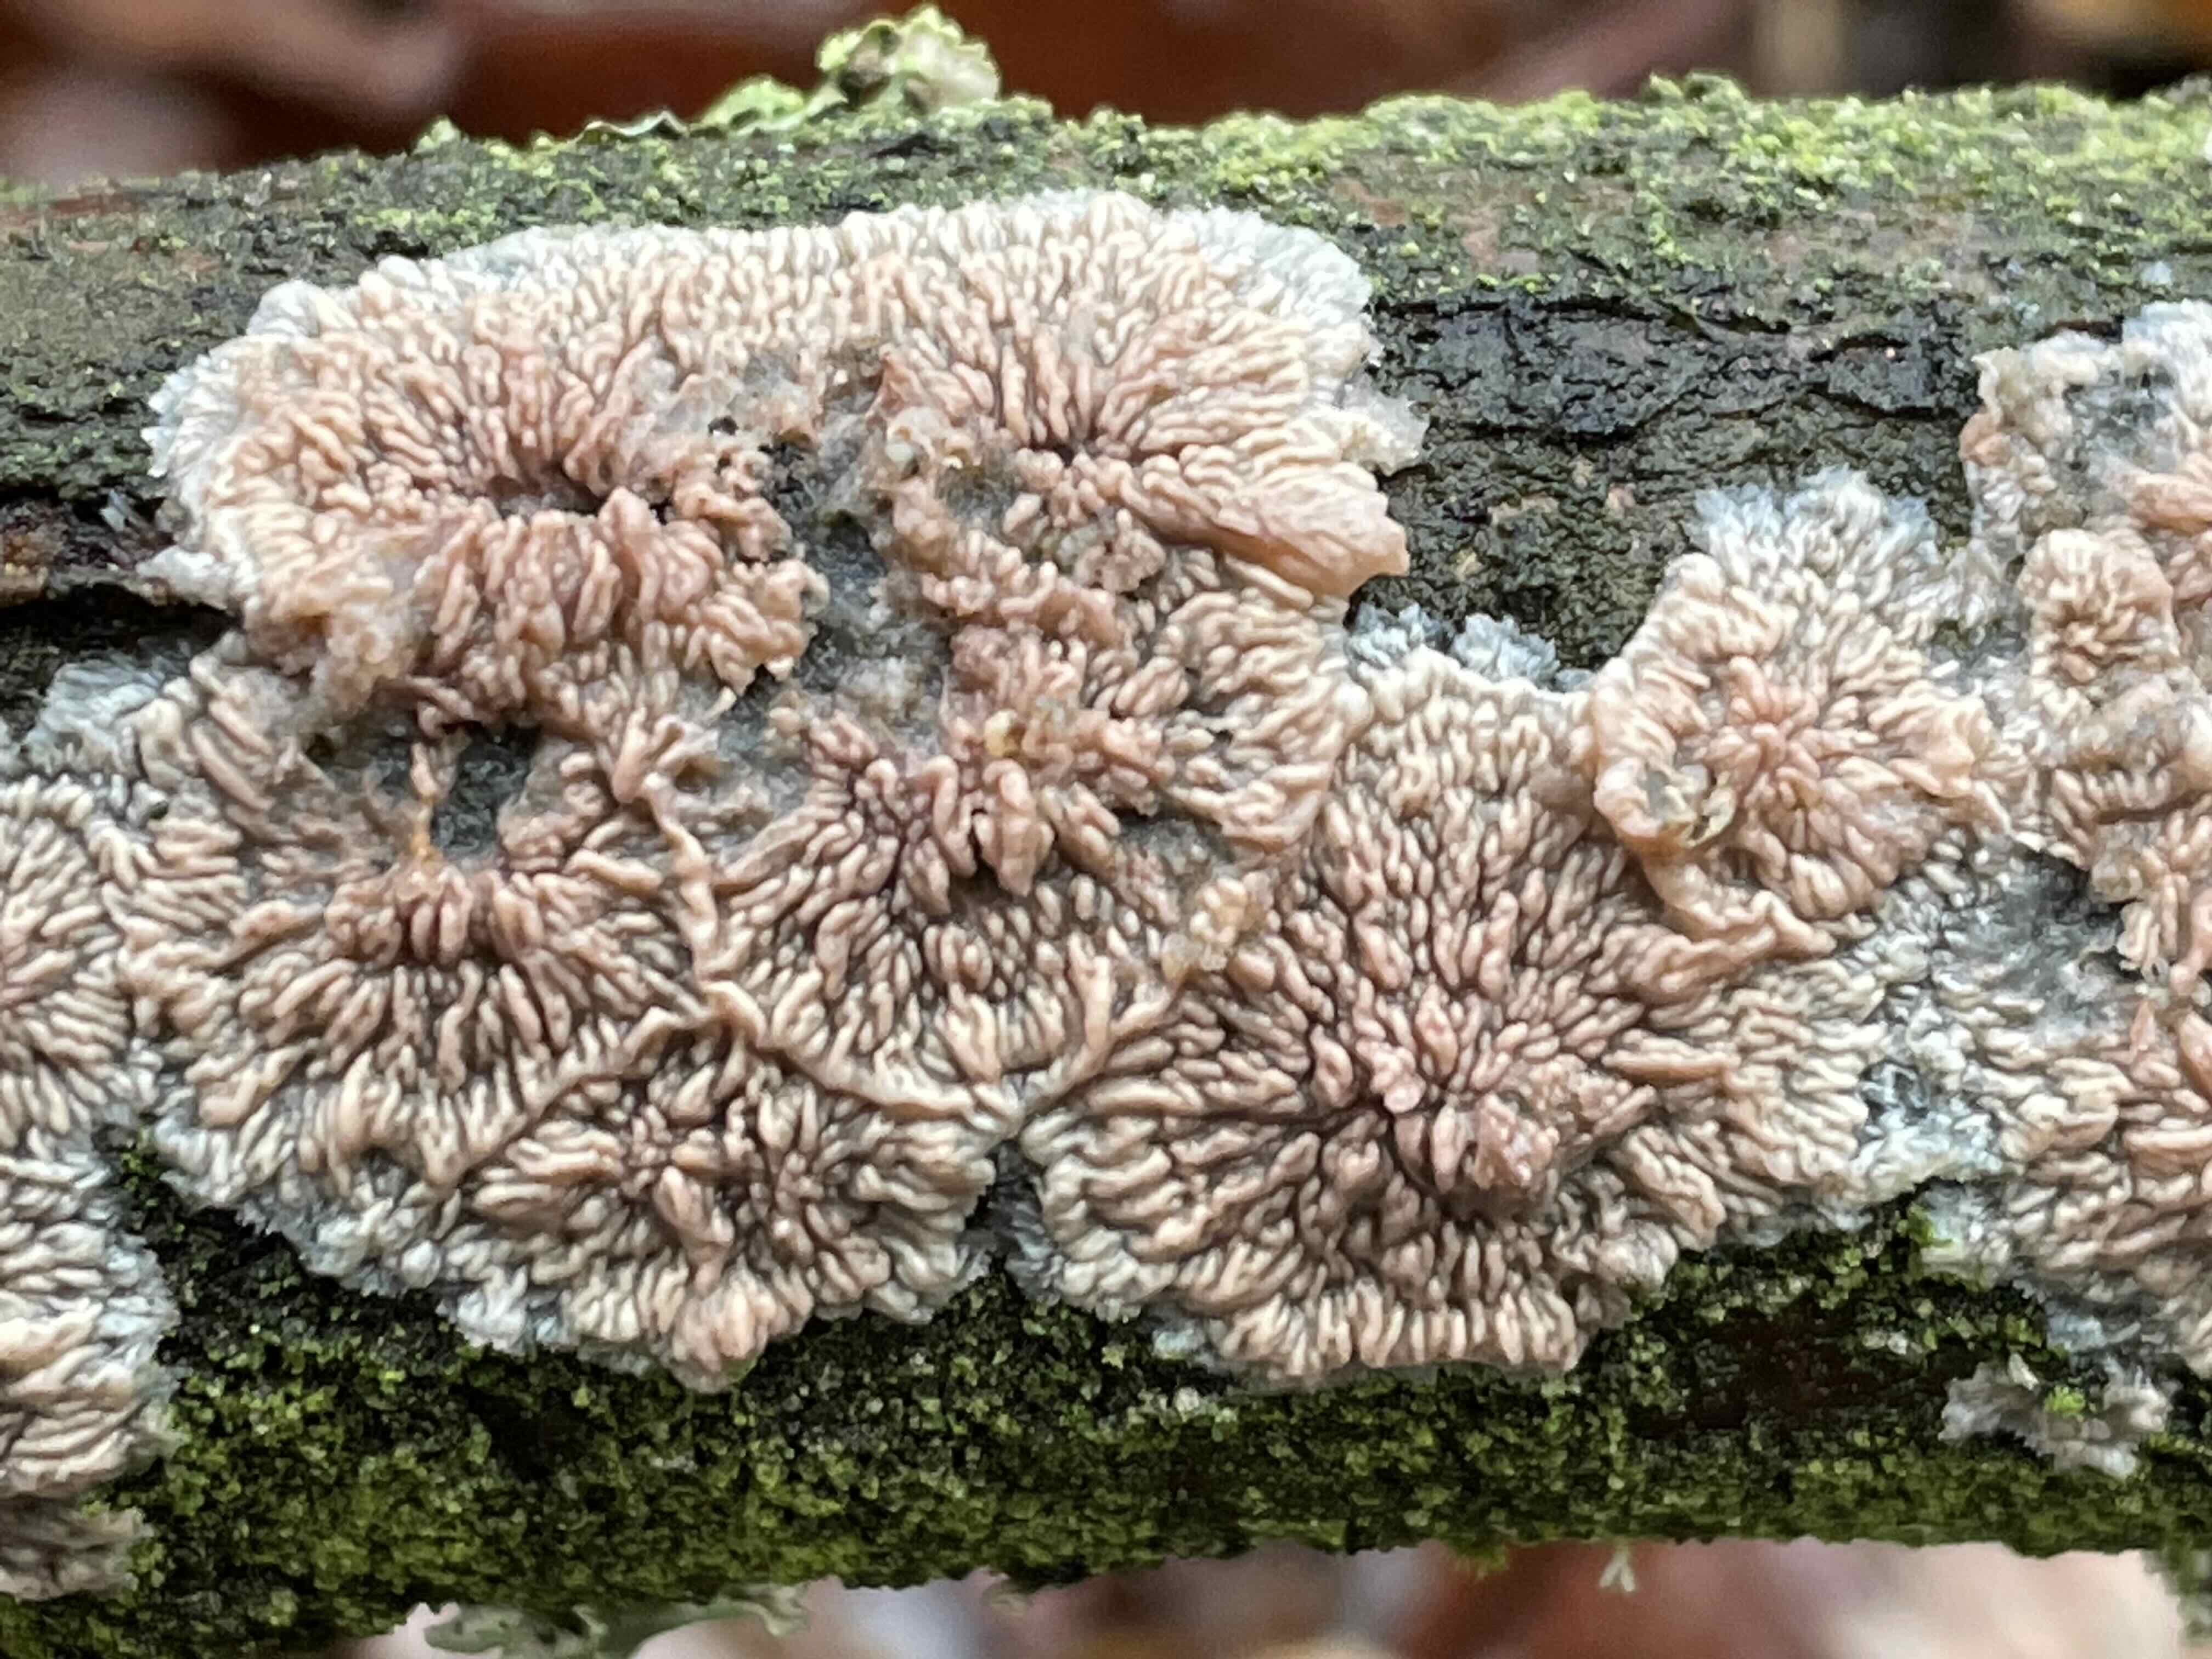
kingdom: Fungi
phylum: Basidiomycota
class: Agaricomycetes
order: Polyporales
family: Meruliaceae
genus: Phlebia
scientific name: Phlebia radiata
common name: stråle-åresvamp
